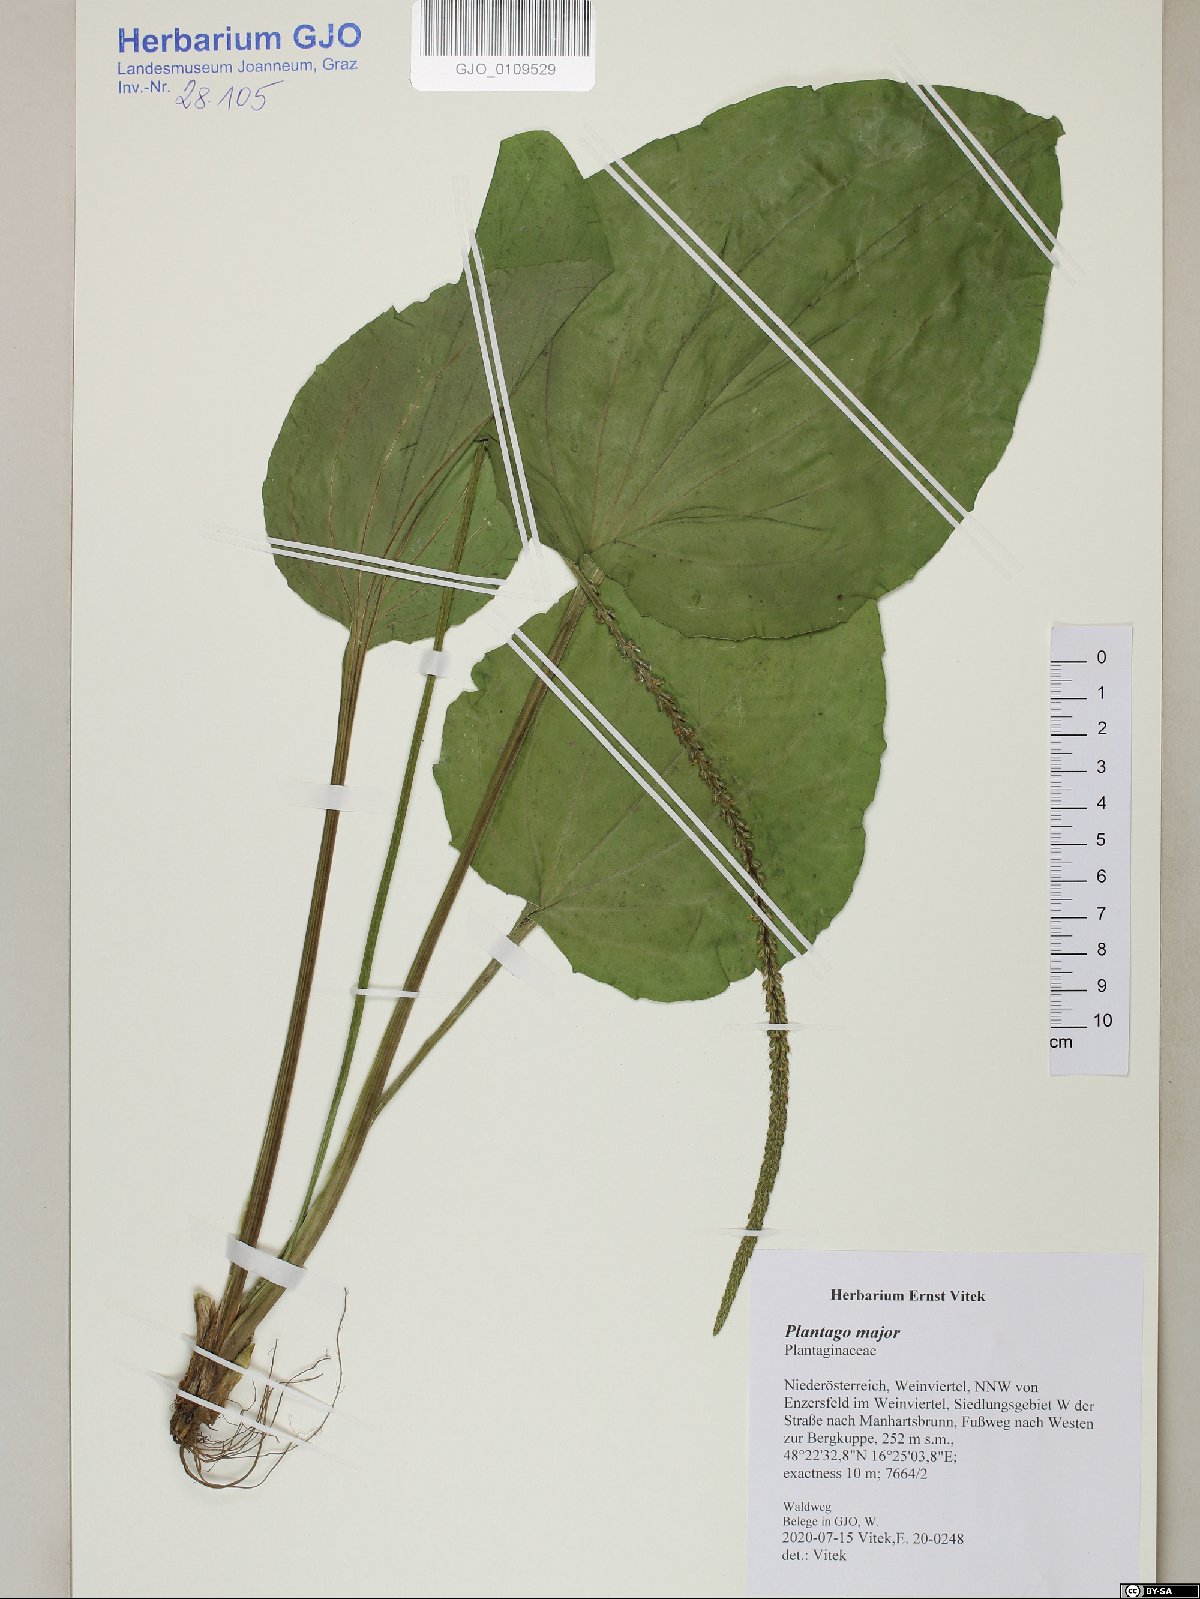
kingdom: Plantae
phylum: Tracheophyta
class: Magnoliopsida
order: Lamiales
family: Plantaginaceae
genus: Plantago
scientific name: Plantago major
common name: Common plantain
